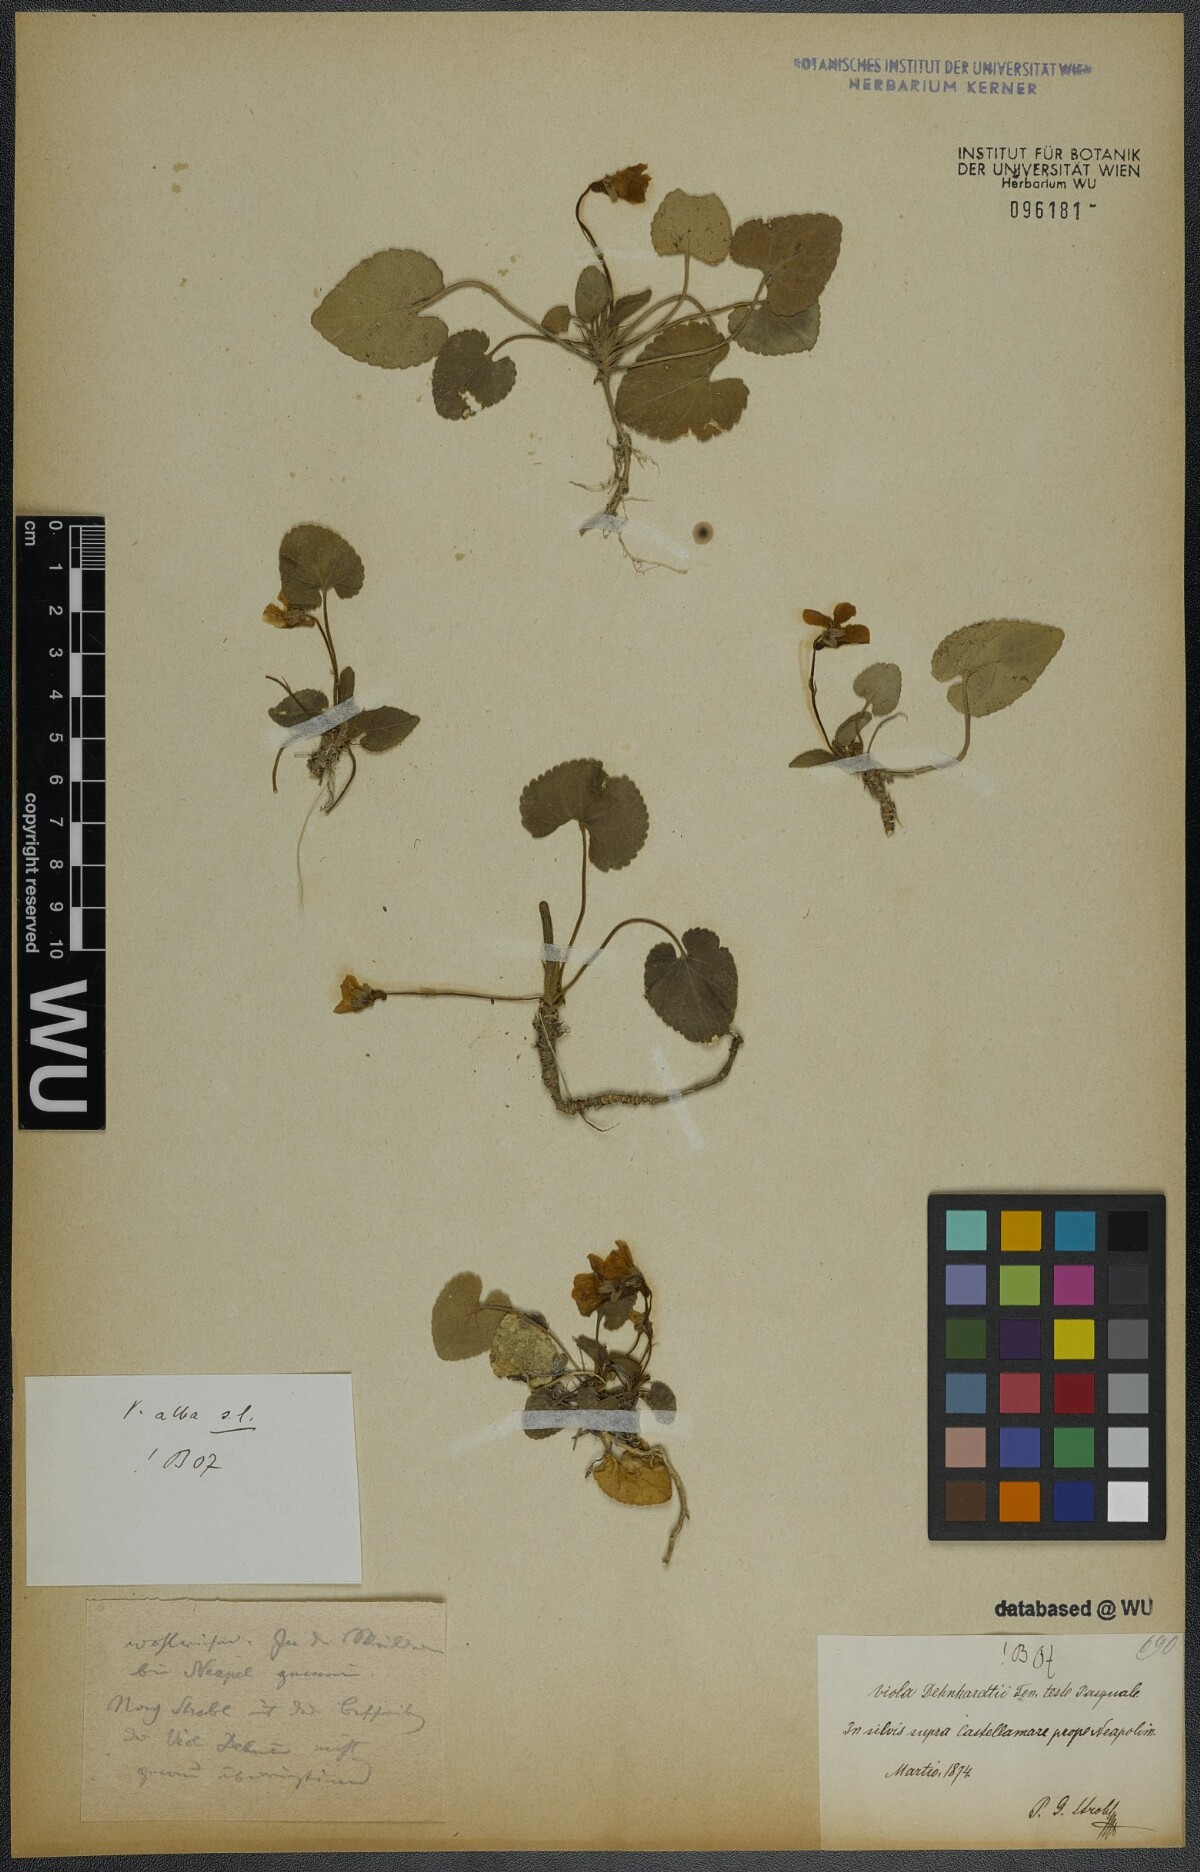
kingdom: Plantae
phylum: Tracheophyta
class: Magnoliopsida
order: Malpighiales
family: Violaceae
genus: Viola
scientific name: Viola alba
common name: White violet
